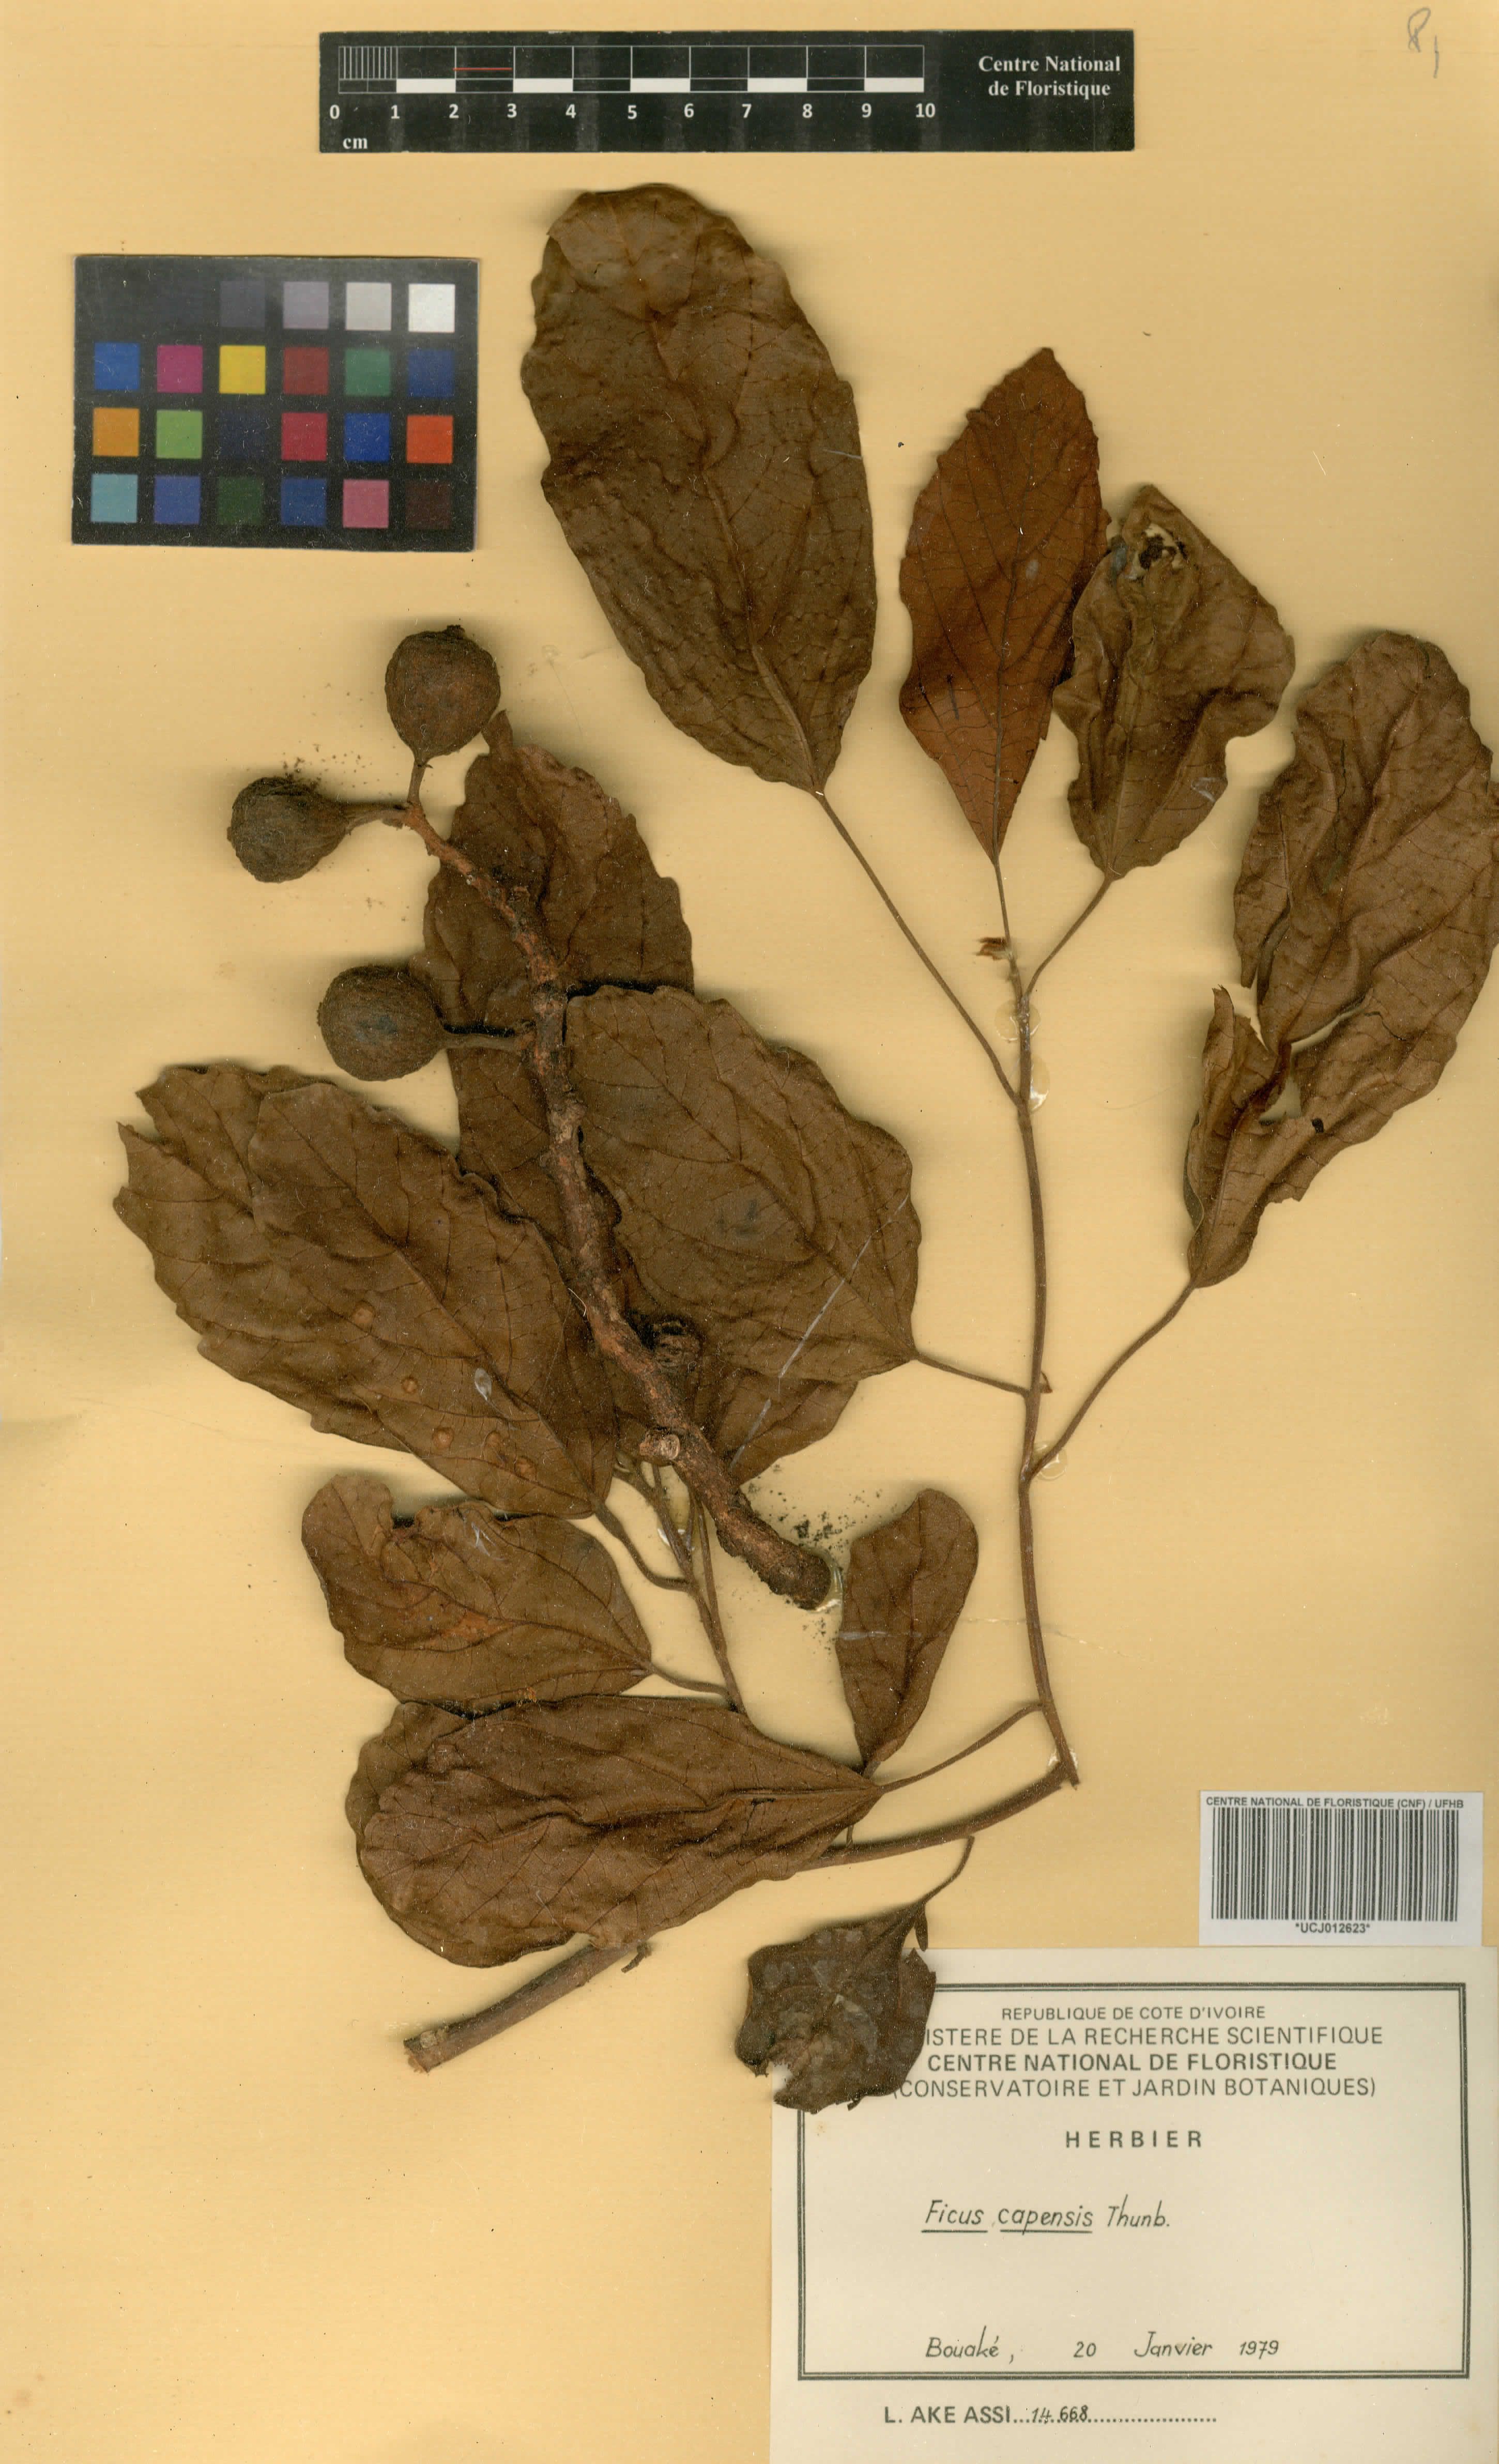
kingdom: Plantae
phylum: Tracheophyta
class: Magnoliopsida
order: Rosales
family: Moraceae
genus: Ficus
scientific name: Ficus sur
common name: Cape fig
